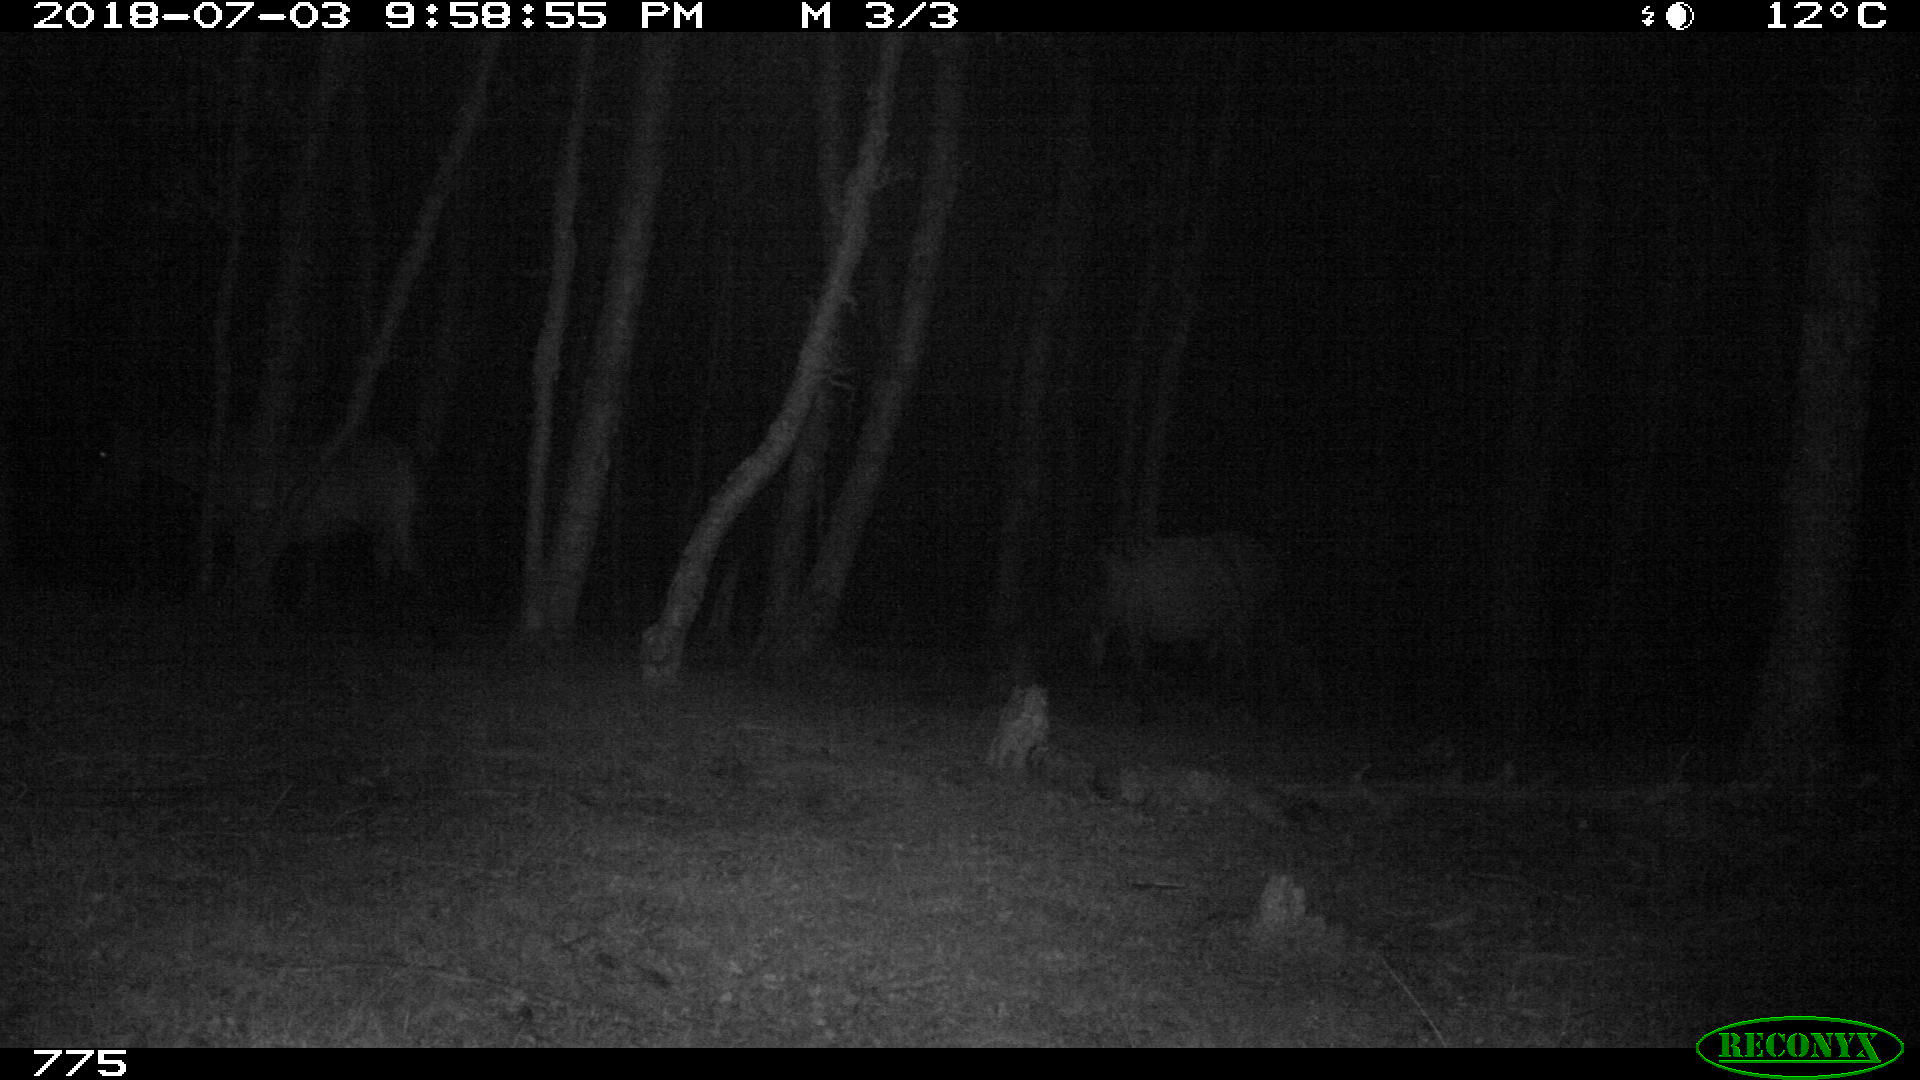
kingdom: Animalia
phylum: Chordata
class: Mammalia
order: Perissodactyla
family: Equidae
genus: Equus
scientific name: Equus caballus
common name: Horse
